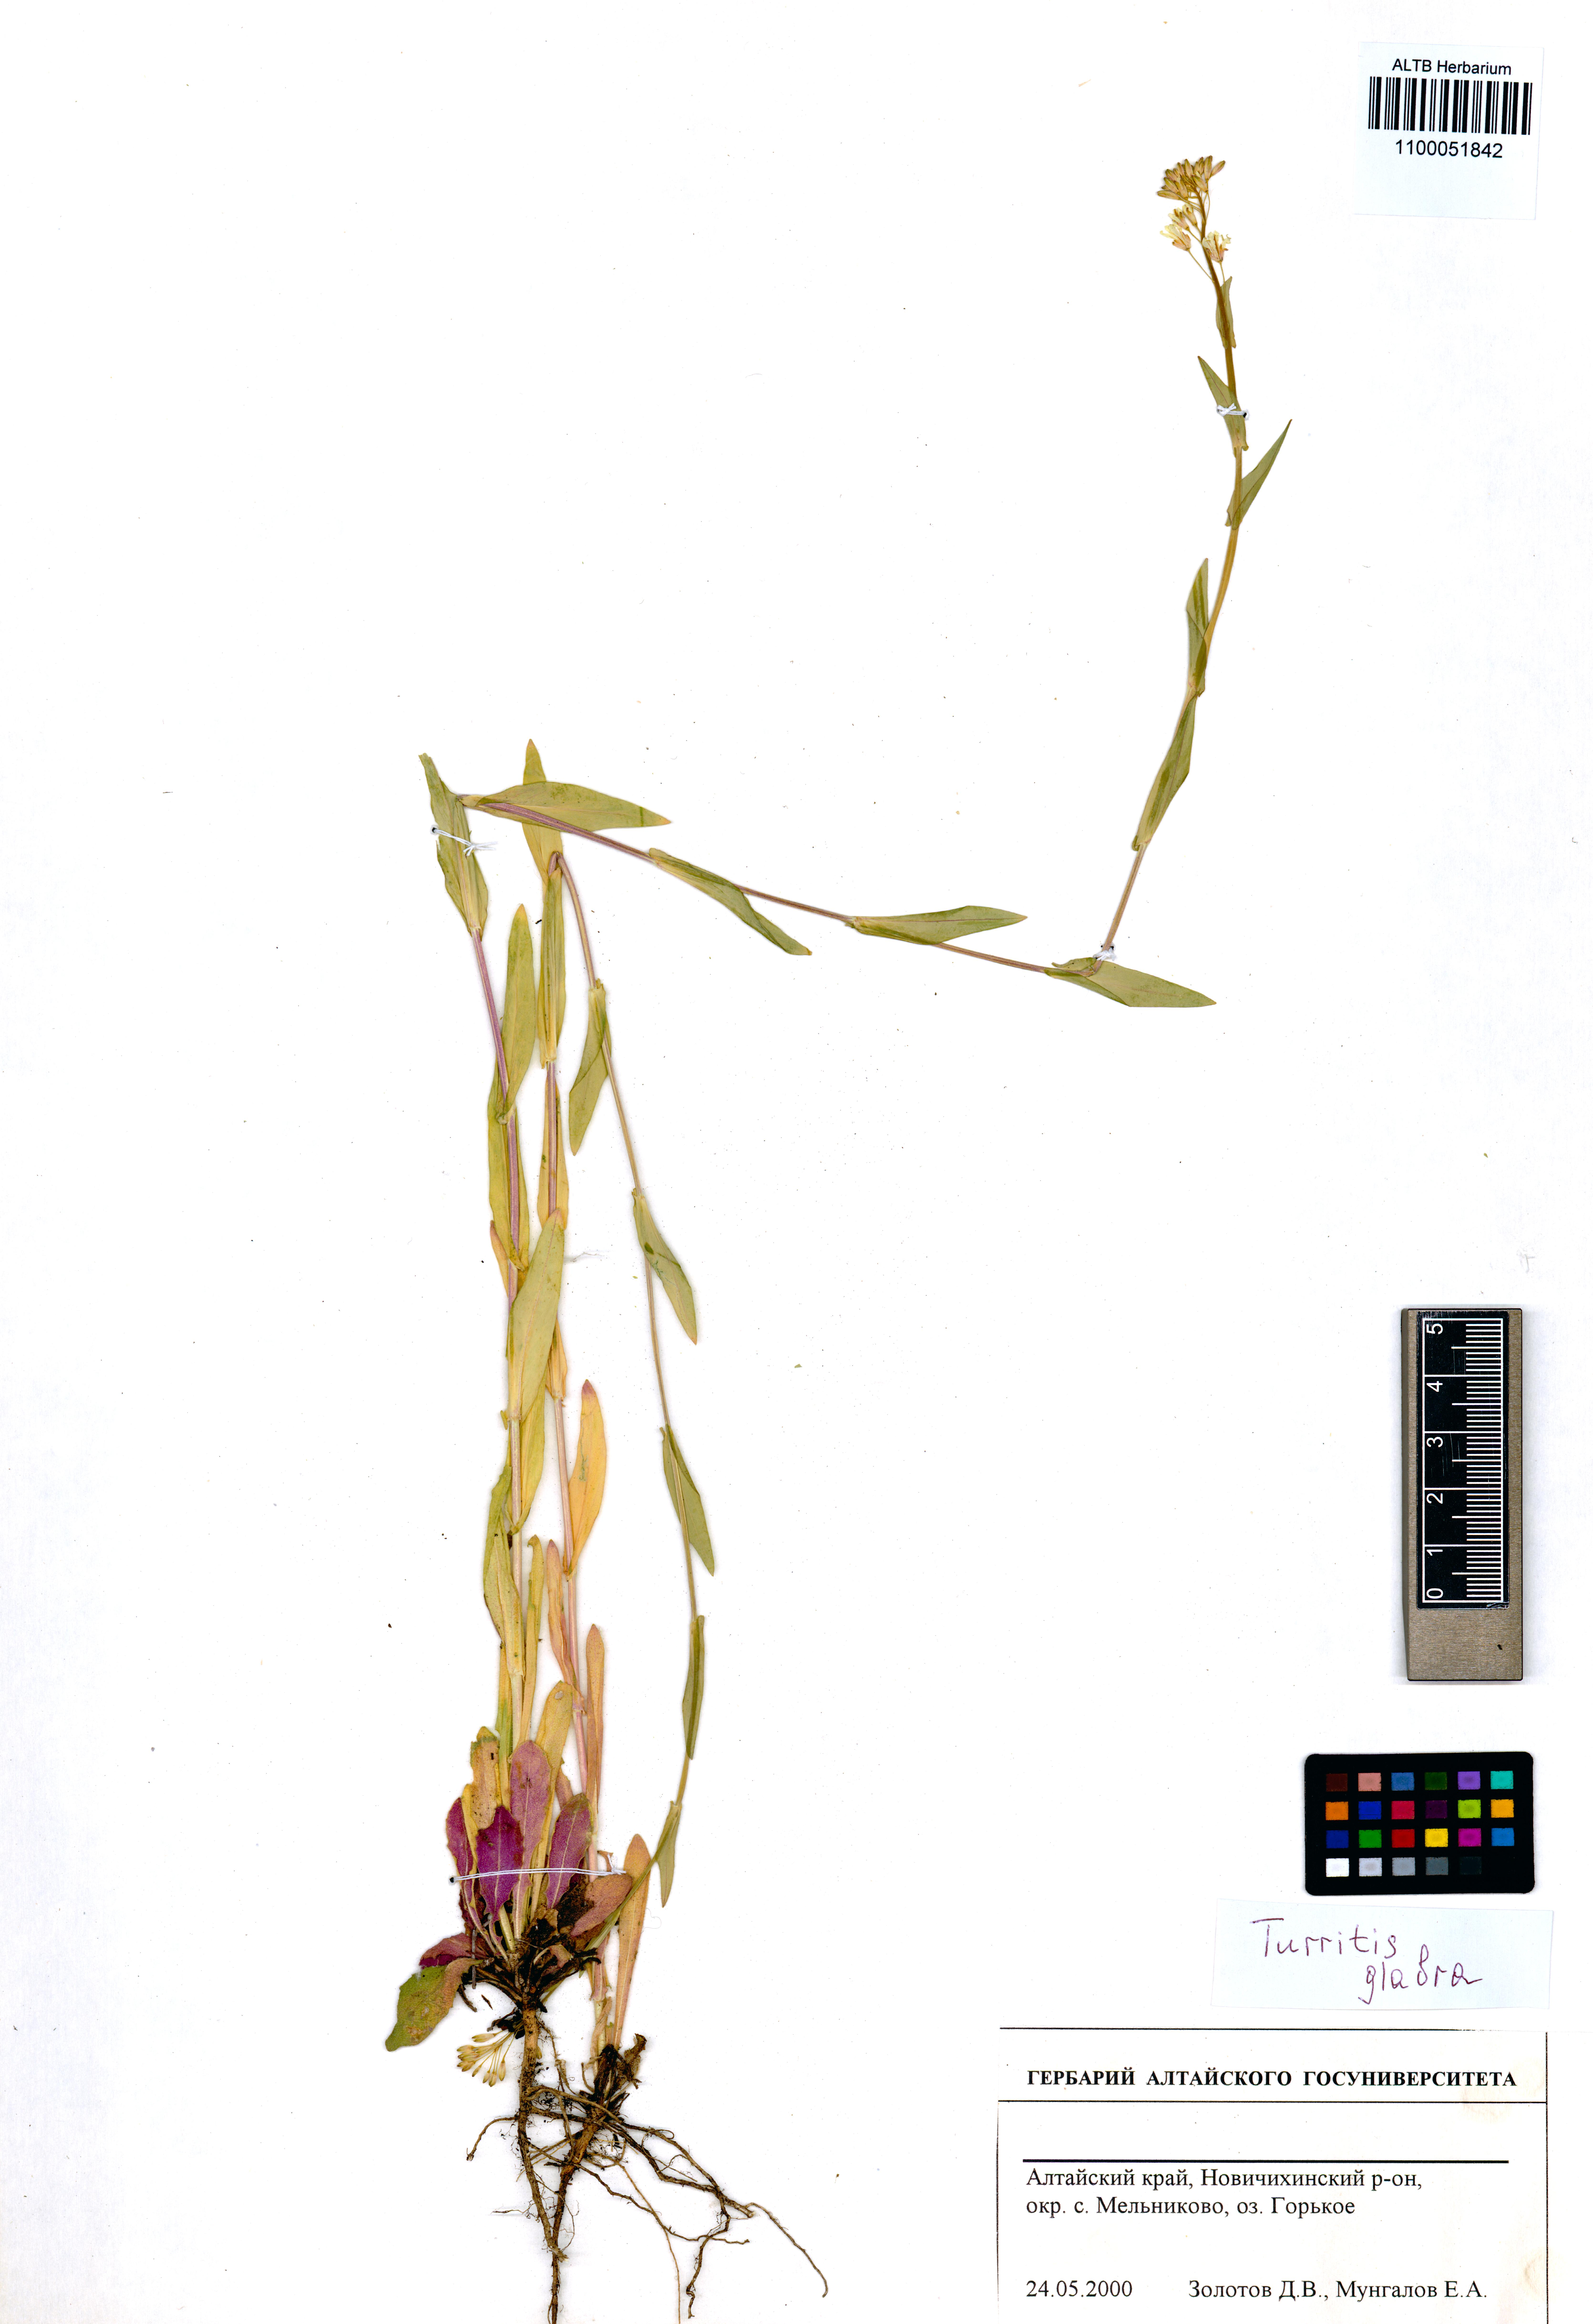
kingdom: Plantae
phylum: Tracheophyta
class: Magnoliopsida
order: Brassicales
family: Brassicaceae
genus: Turritis
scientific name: Turritis glabra
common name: Tower rockcress
